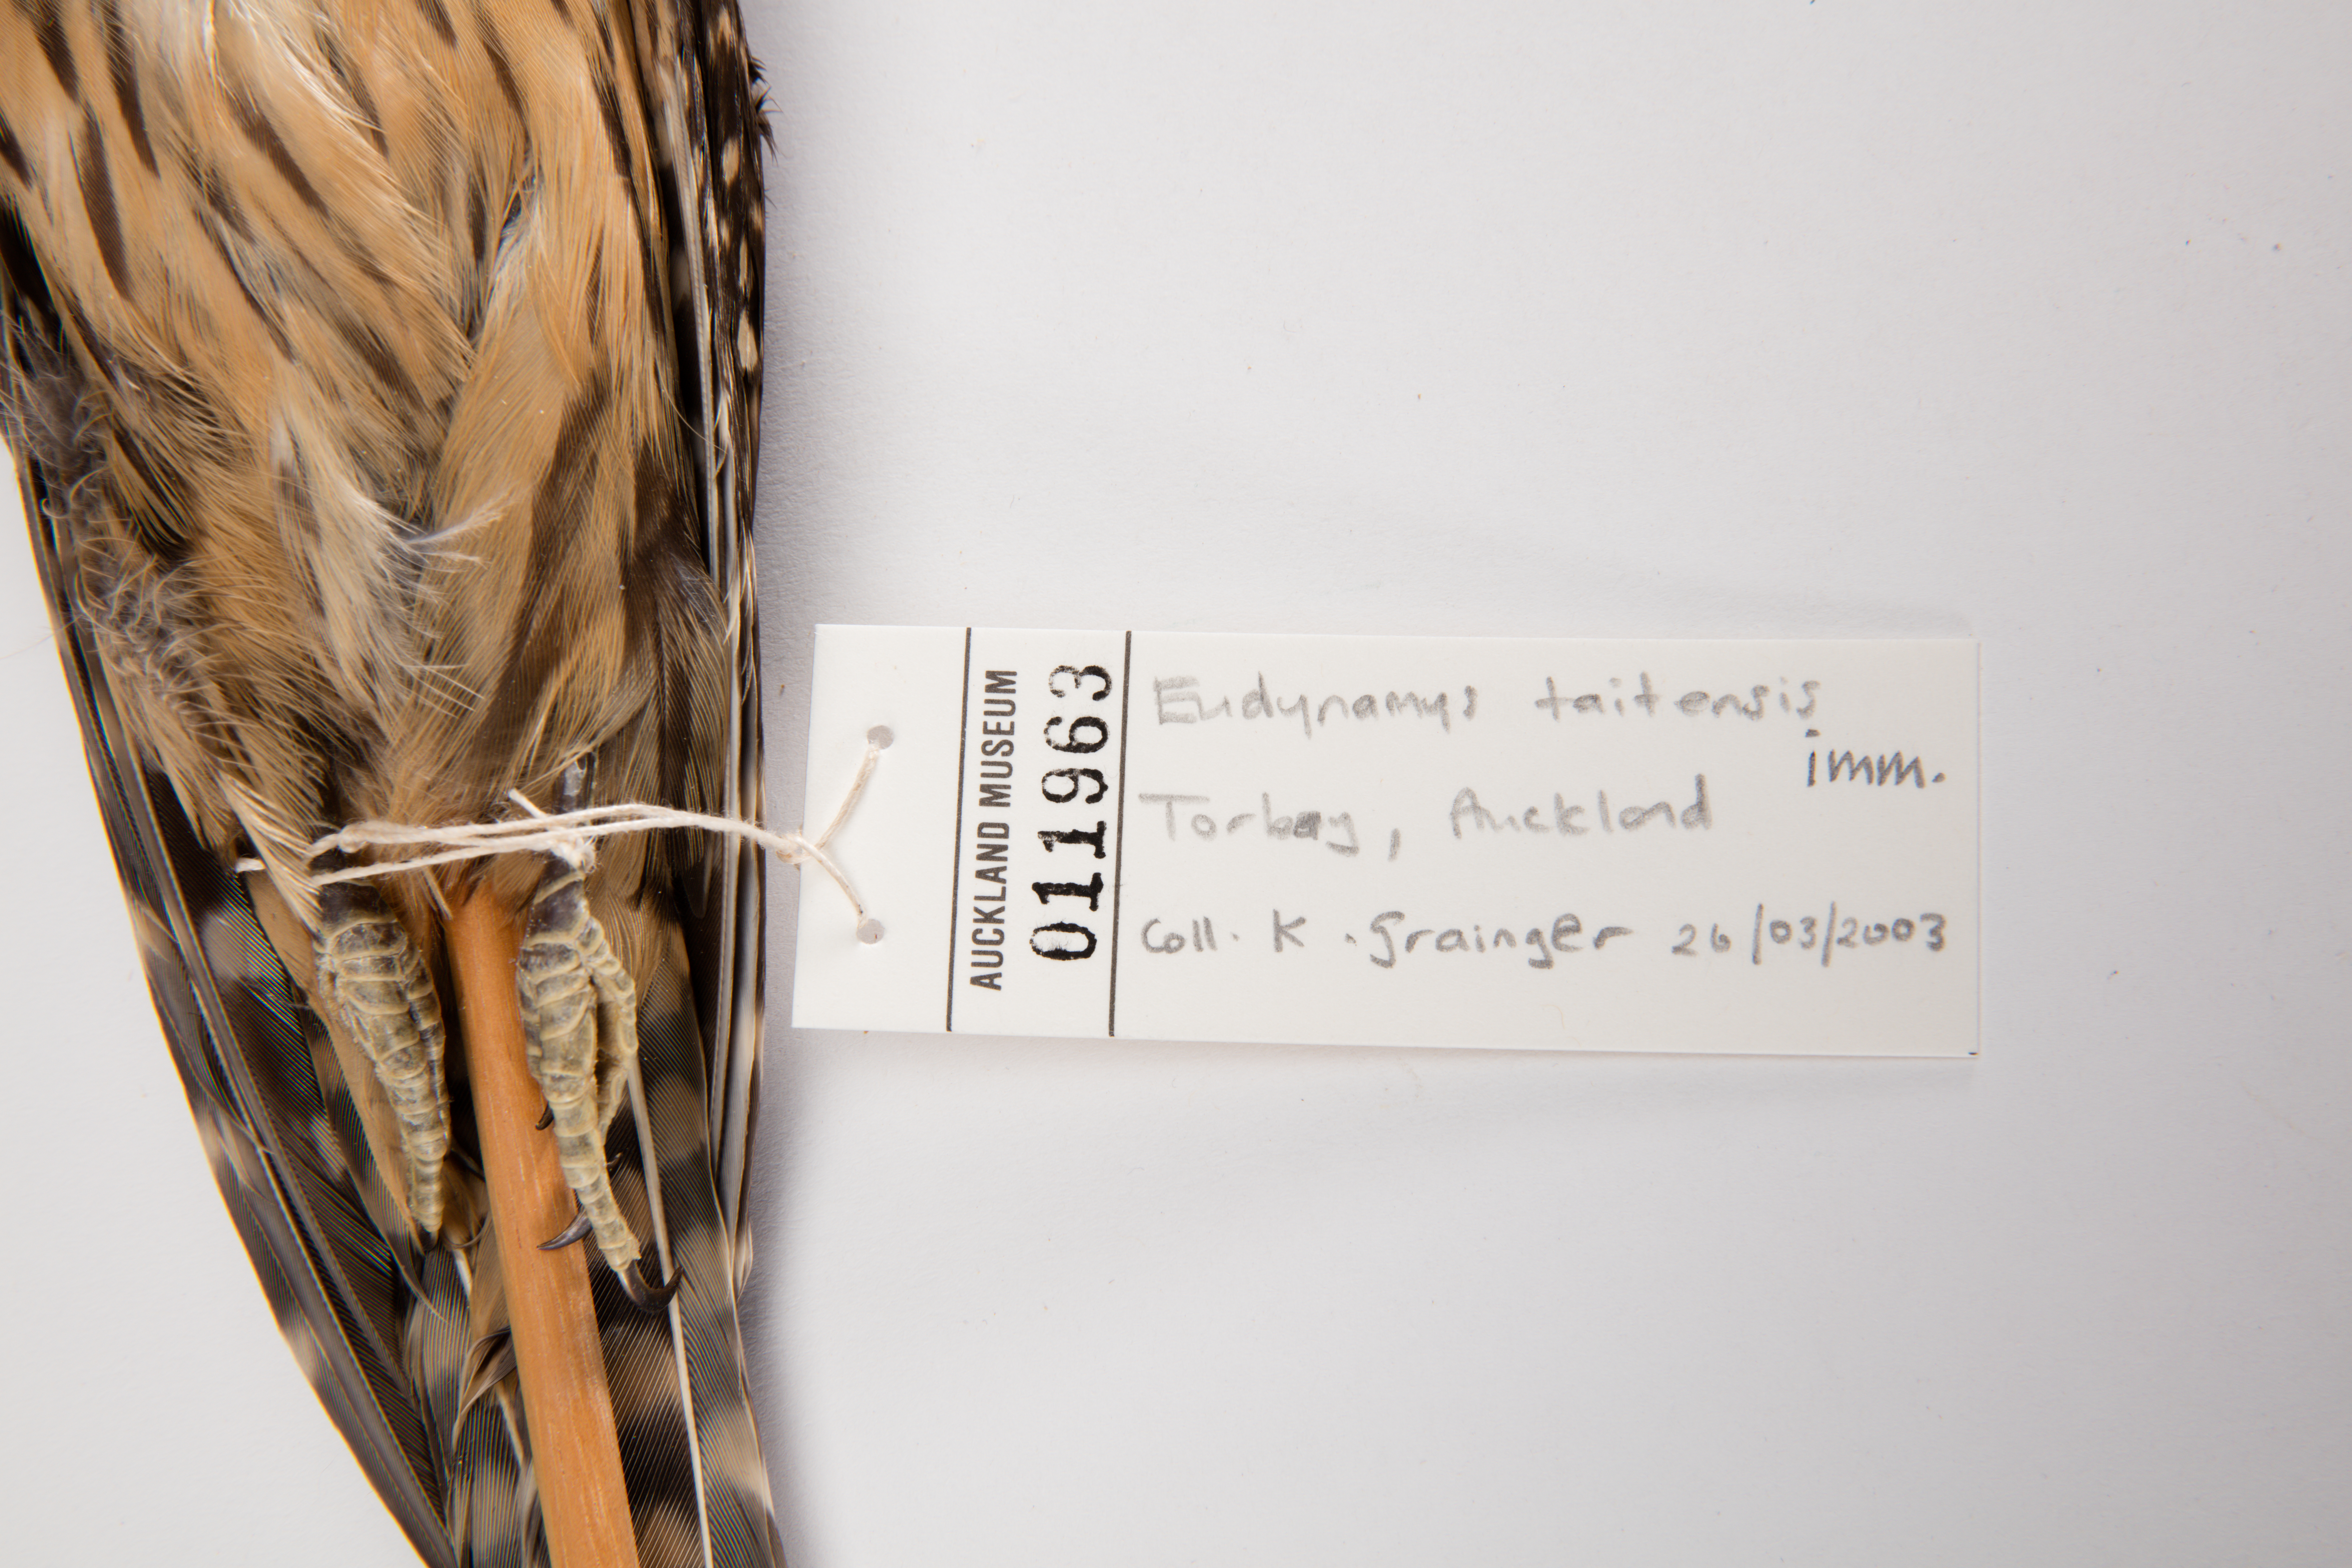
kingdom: Animalia
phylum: Chordata
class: Aves
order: Cuculiformes
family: Cuculidae
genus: Urodynamis
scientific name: Urodynamis taitensis
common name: Long-tailed koel
